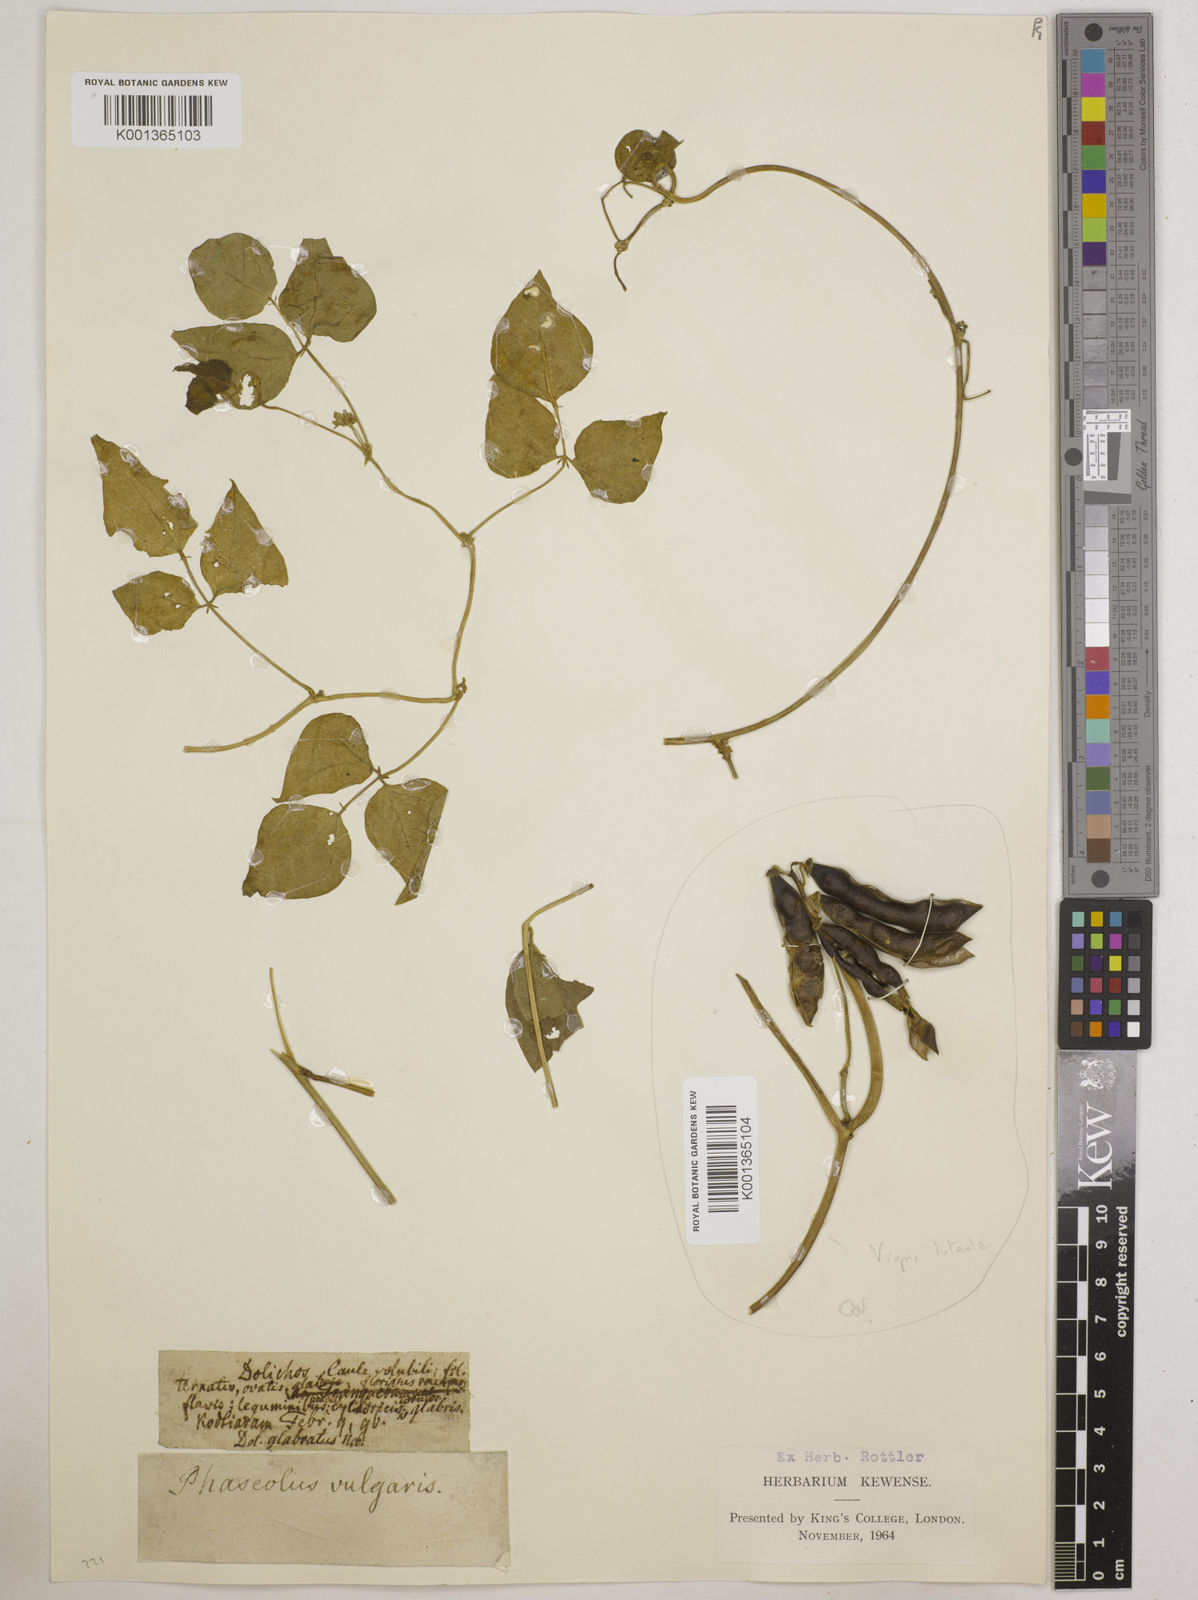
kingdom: Plantae
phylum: Tracheophyta
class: Magnoliopsida
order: Fabales
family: Fabaceae
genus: Phaseolus
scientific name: Phaseolus vulgaris
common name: Bean
